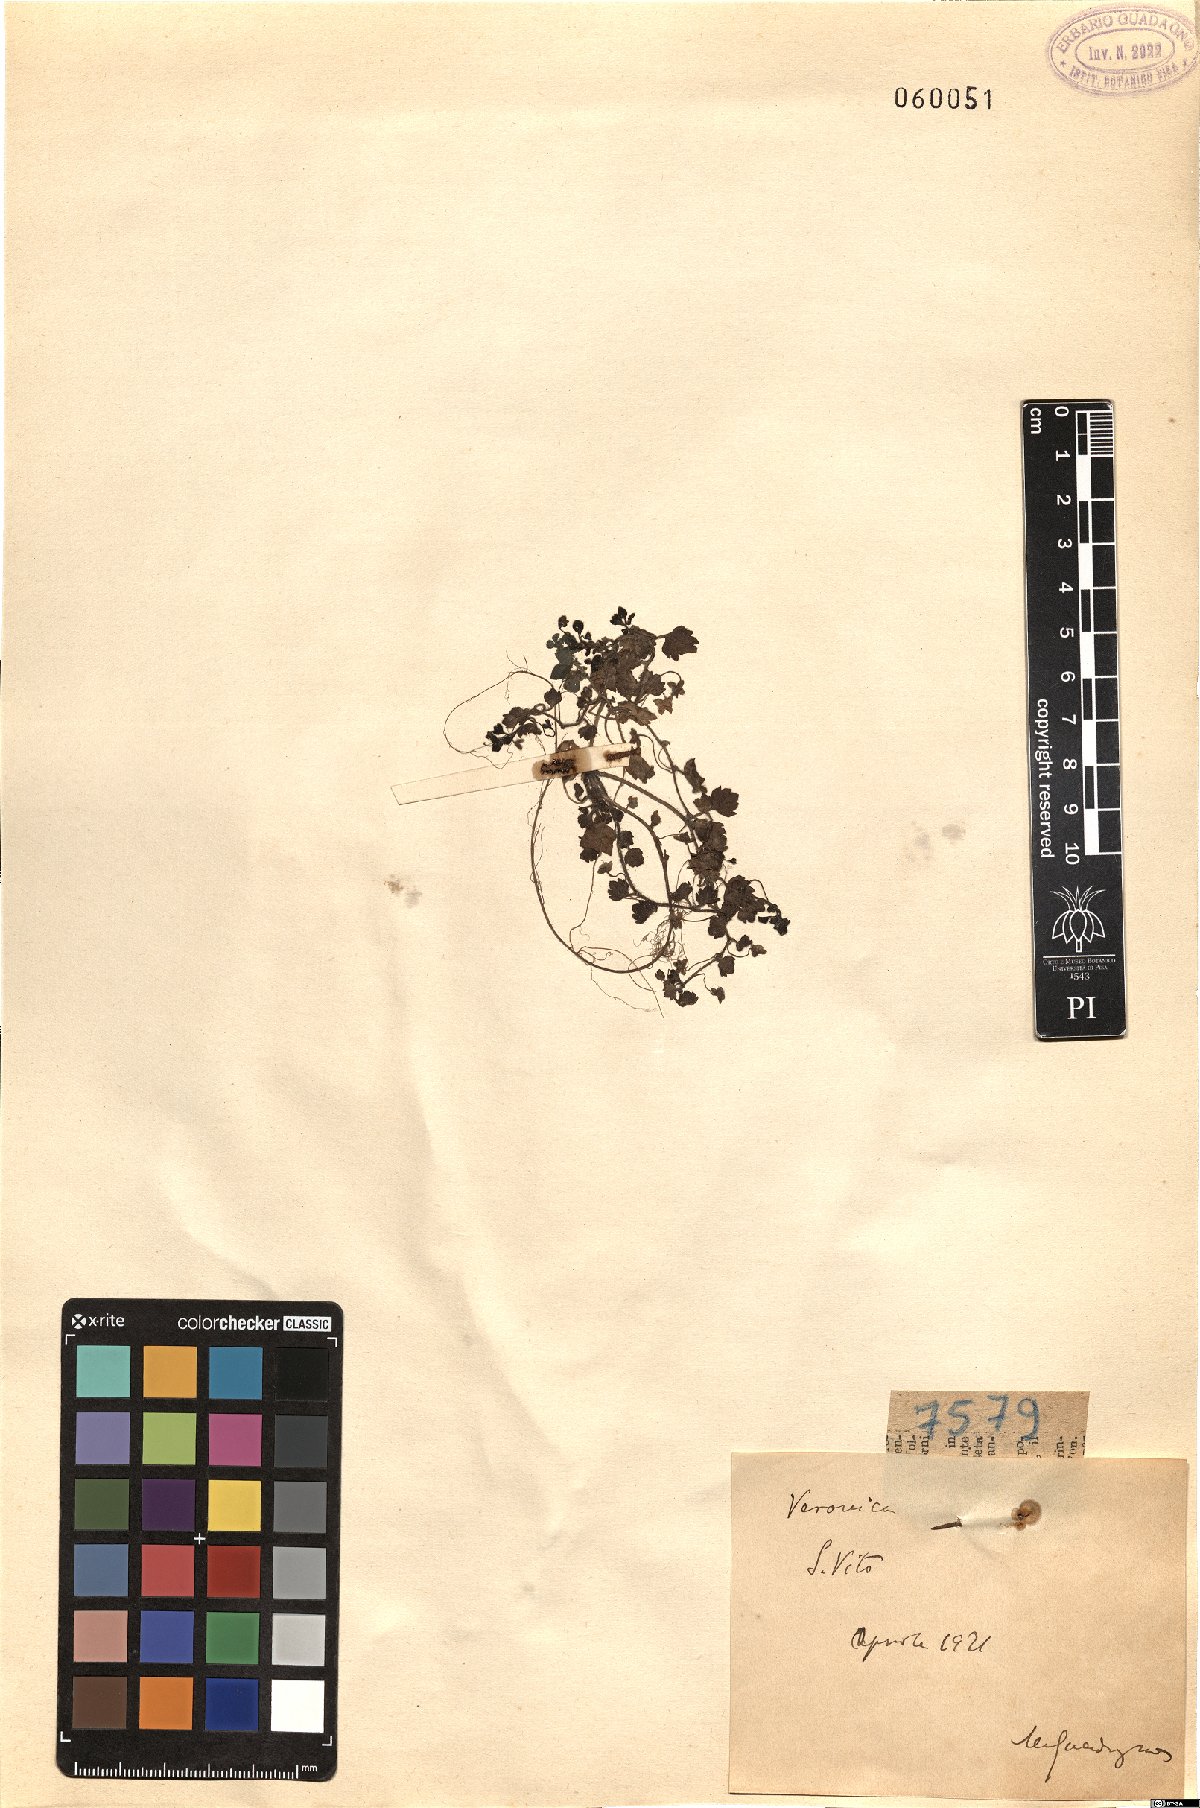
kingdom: Plantae
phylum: Tracheophyta
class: Magnoliopsida
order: Lamiales
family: Plantaginaceae
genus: Veronica
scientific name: Veronica
